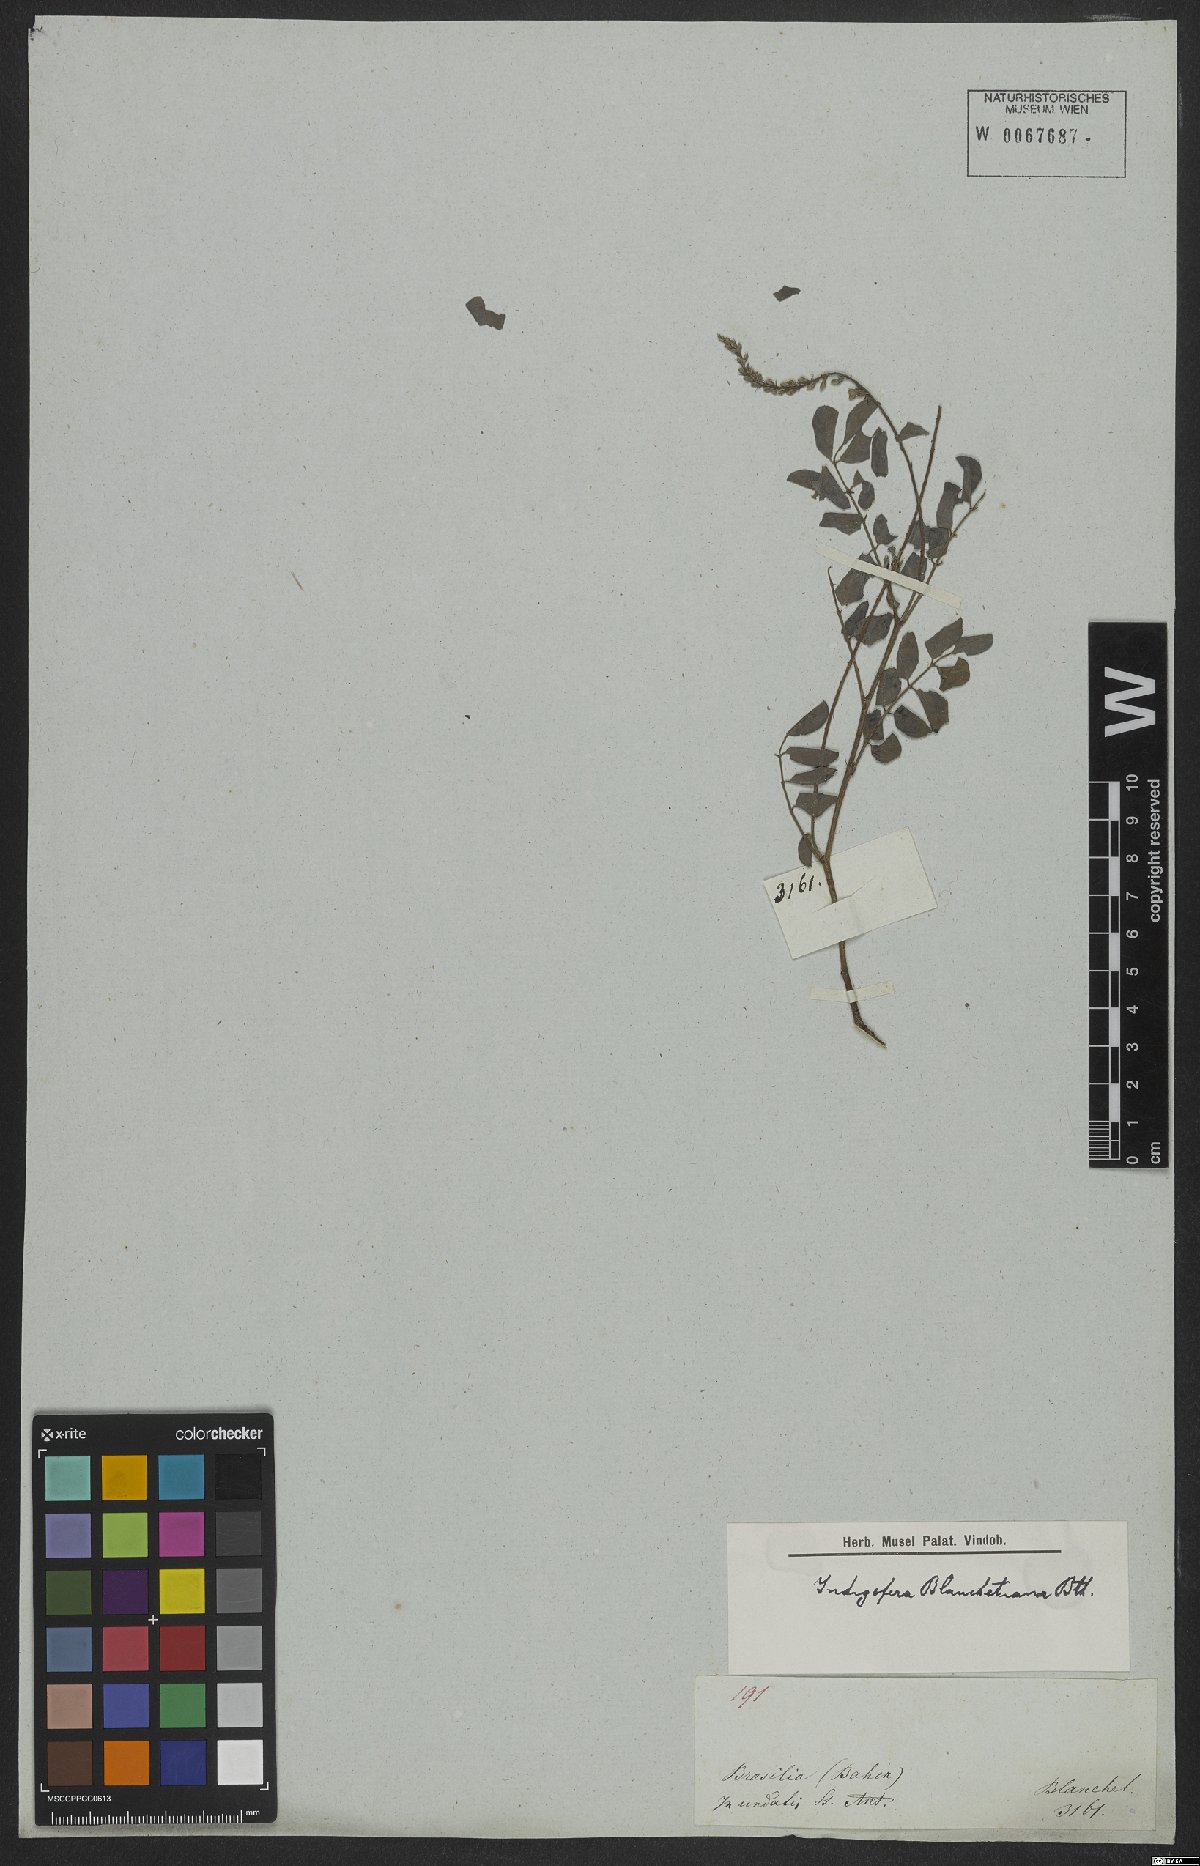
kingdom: Plantae
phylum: Tracheophyta
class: Magnoliopsida
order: Fabales
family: Fabaceae
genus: Indigofera
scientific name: Indigofera blanchetiana
